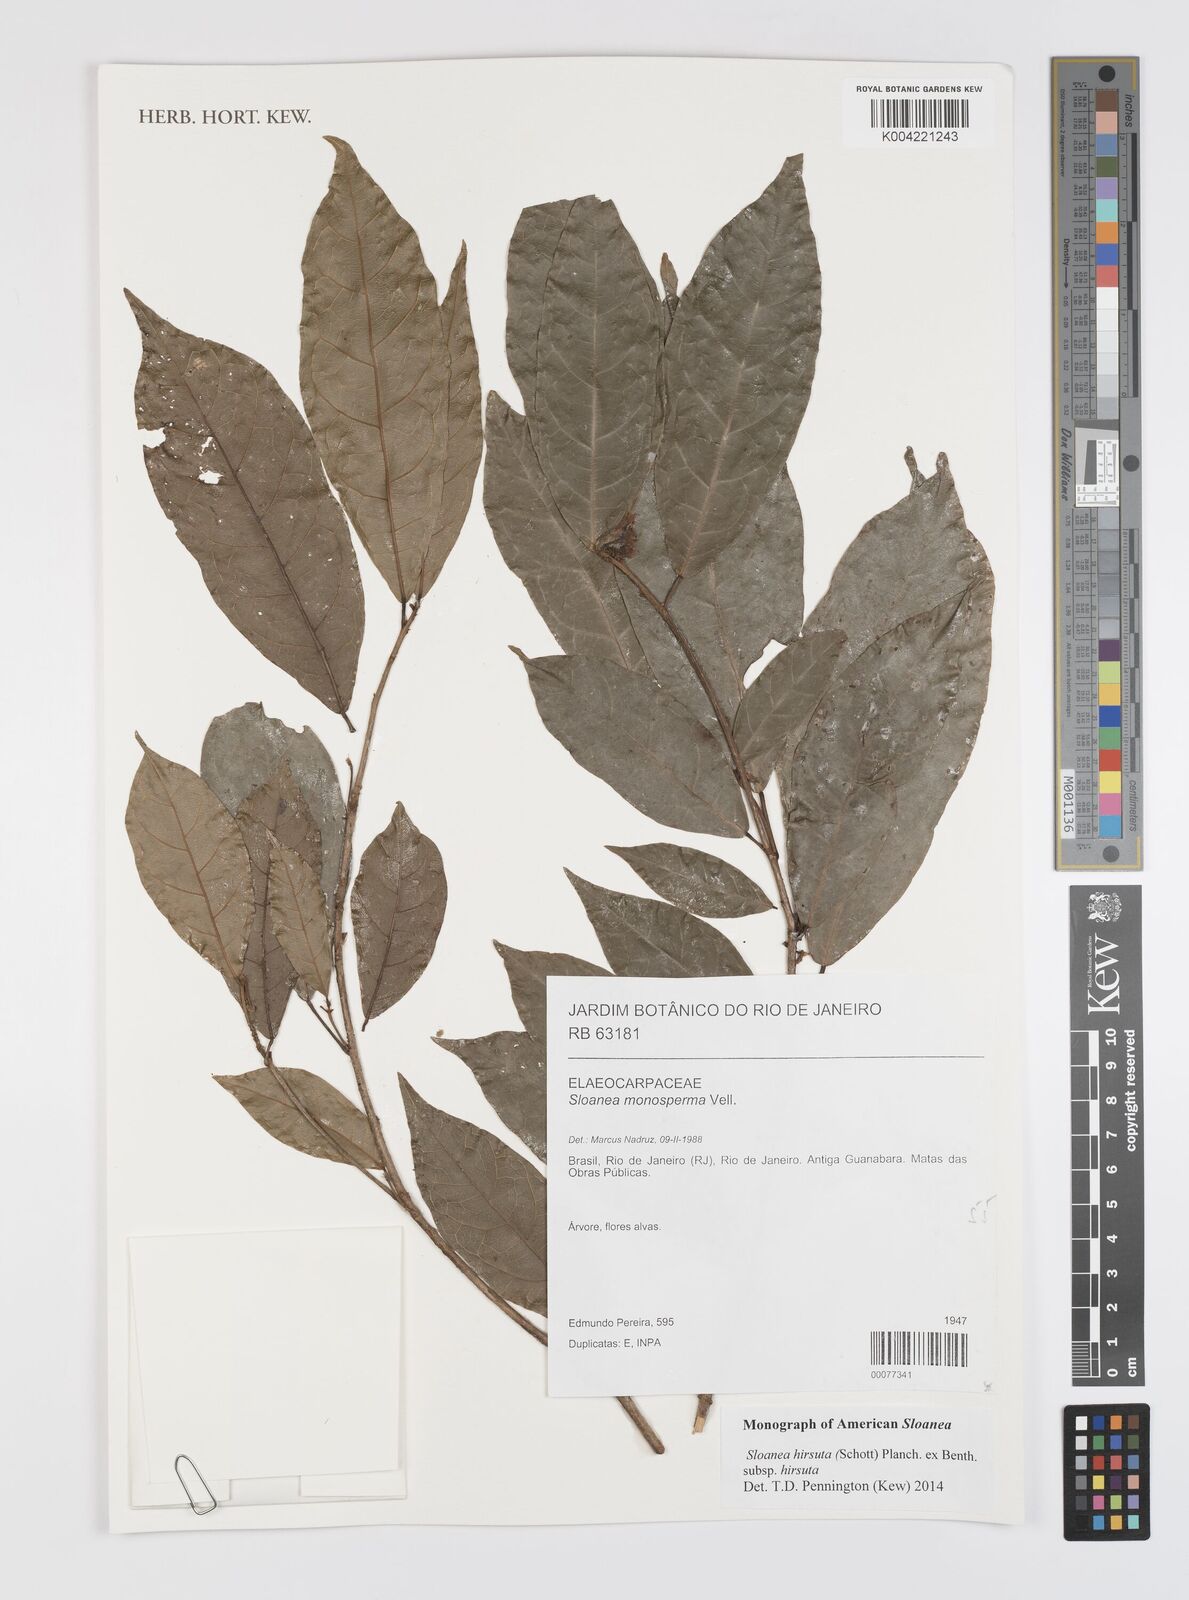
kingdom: Plantae
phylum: Tracheophyta
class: Magnoliopsida
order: Oxalidales
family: Elaeocarpaceae
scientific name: Elaeocarpaceae
